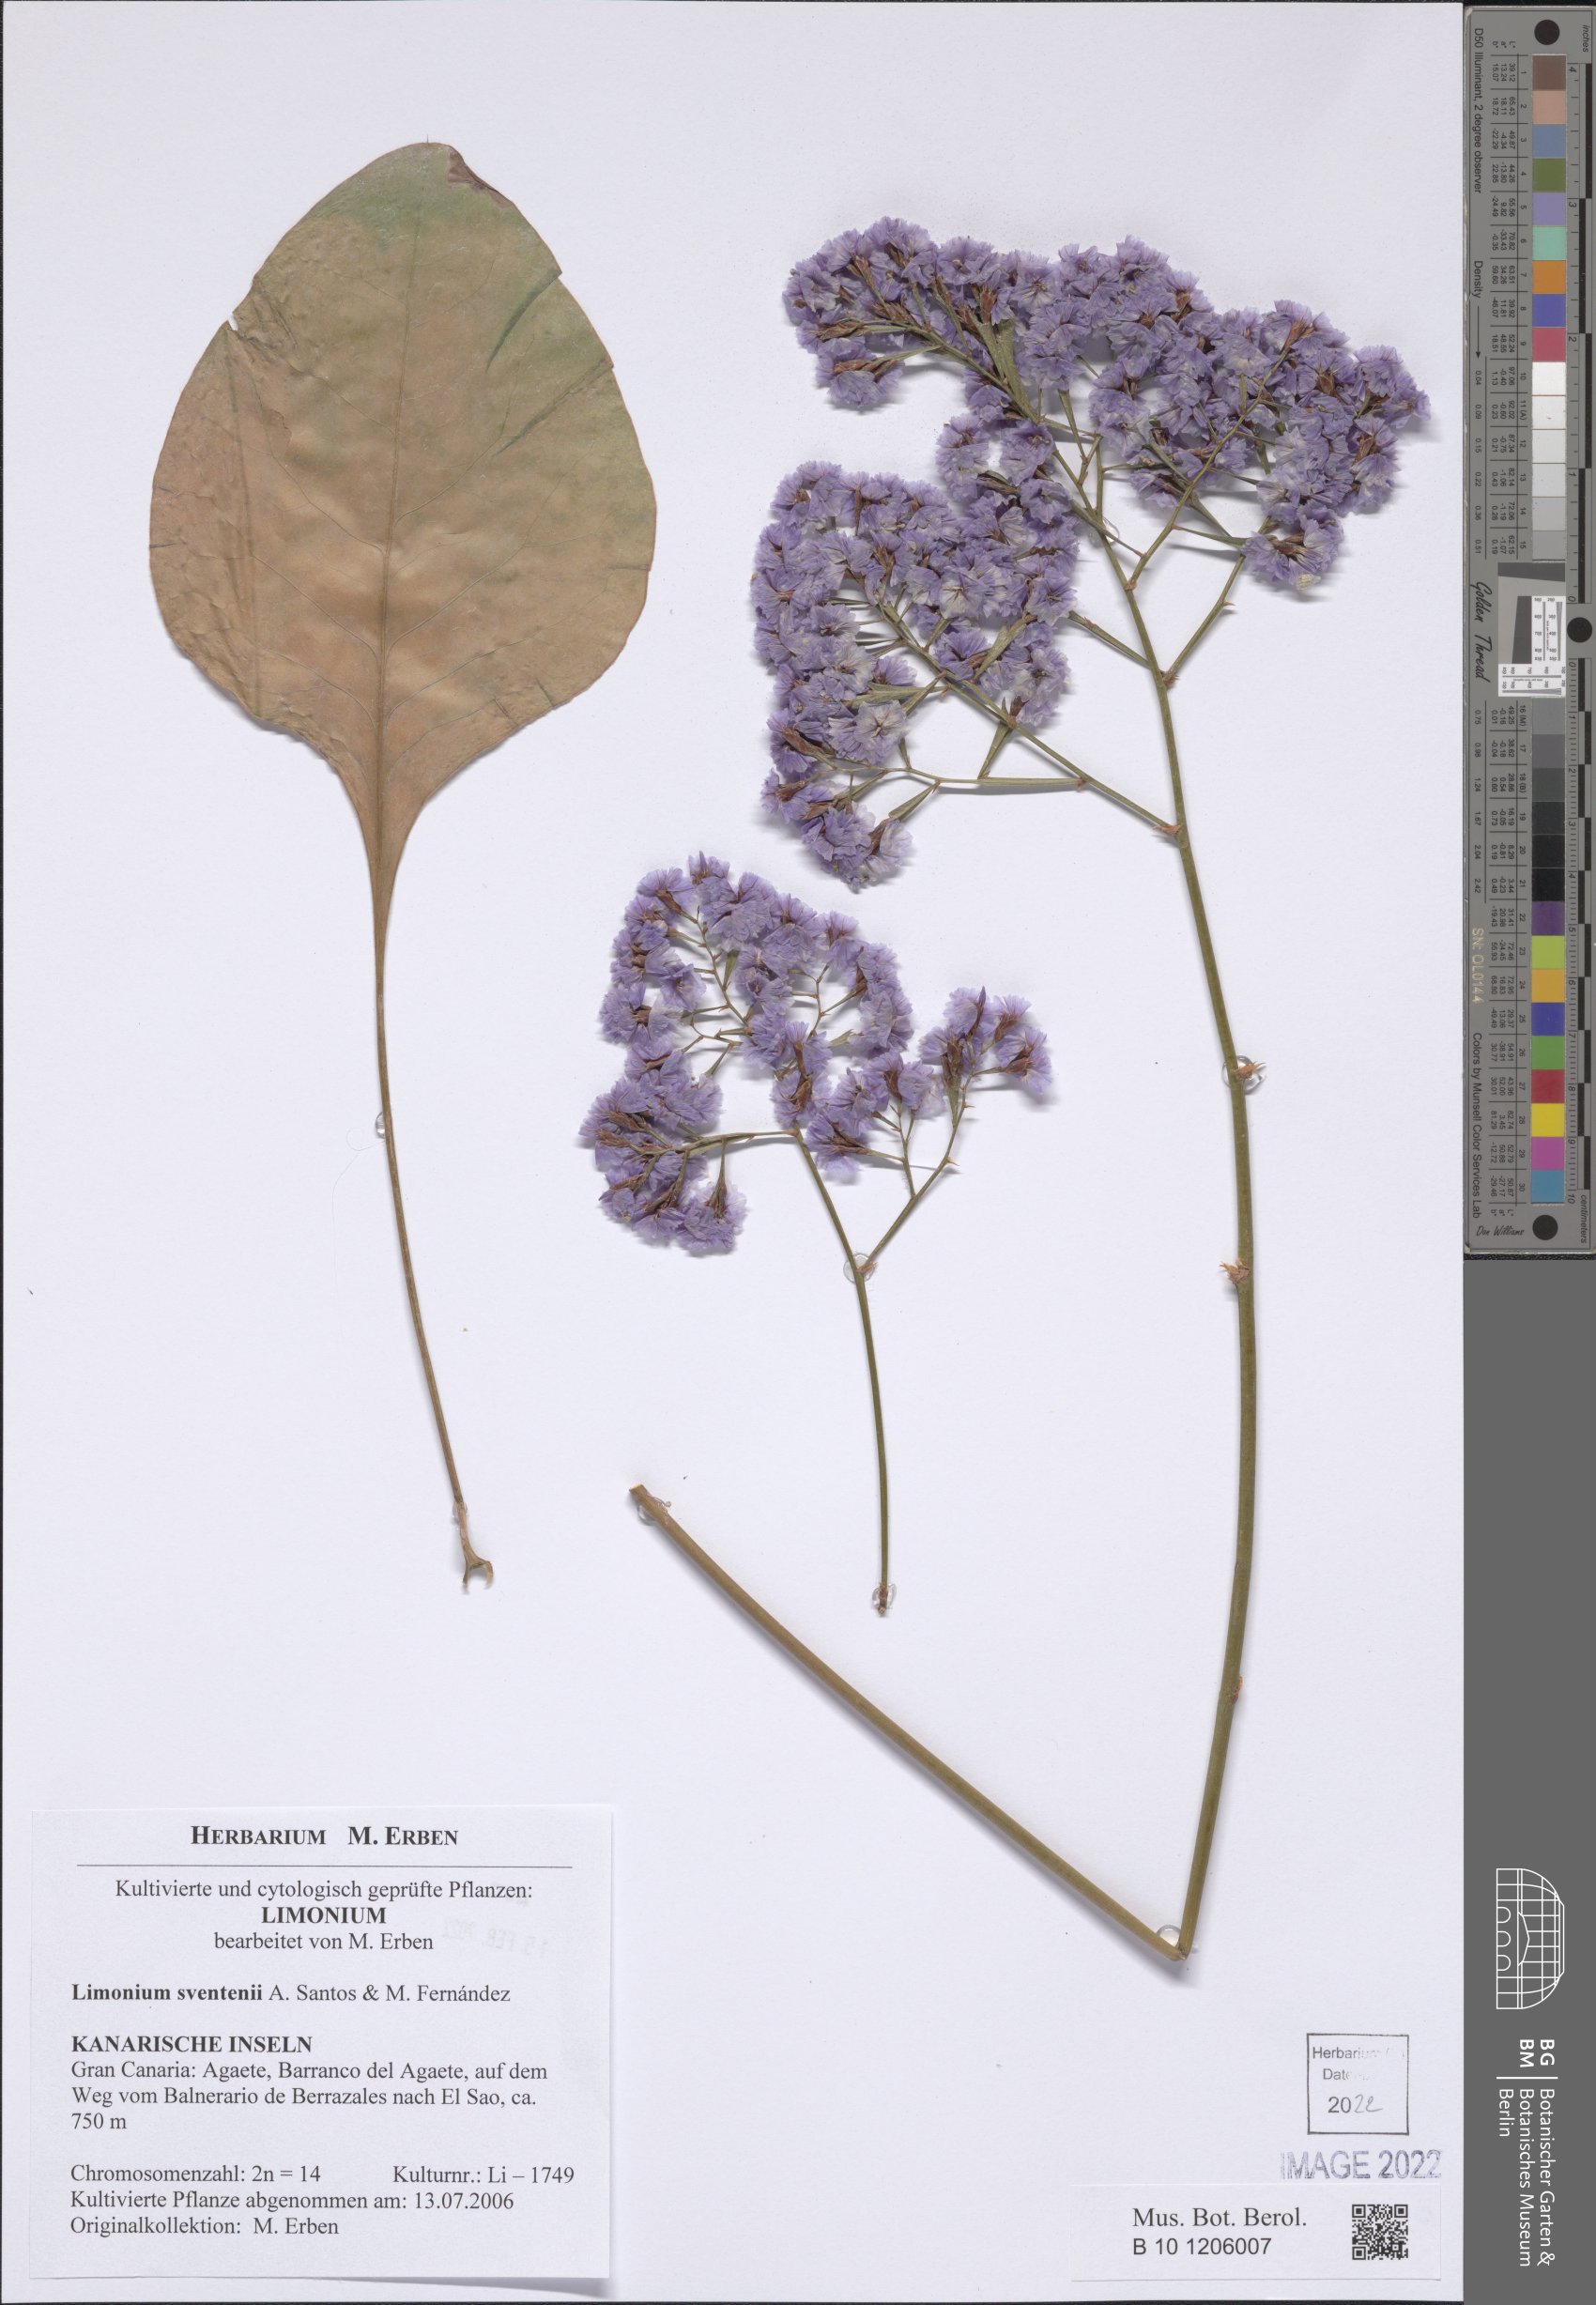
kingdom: Plantae
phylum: Tracheophyta
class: Magnoliopsida
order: Caryophyllales
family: Plumbaginaceae
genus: Limonium
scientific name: Limonium sventenii
